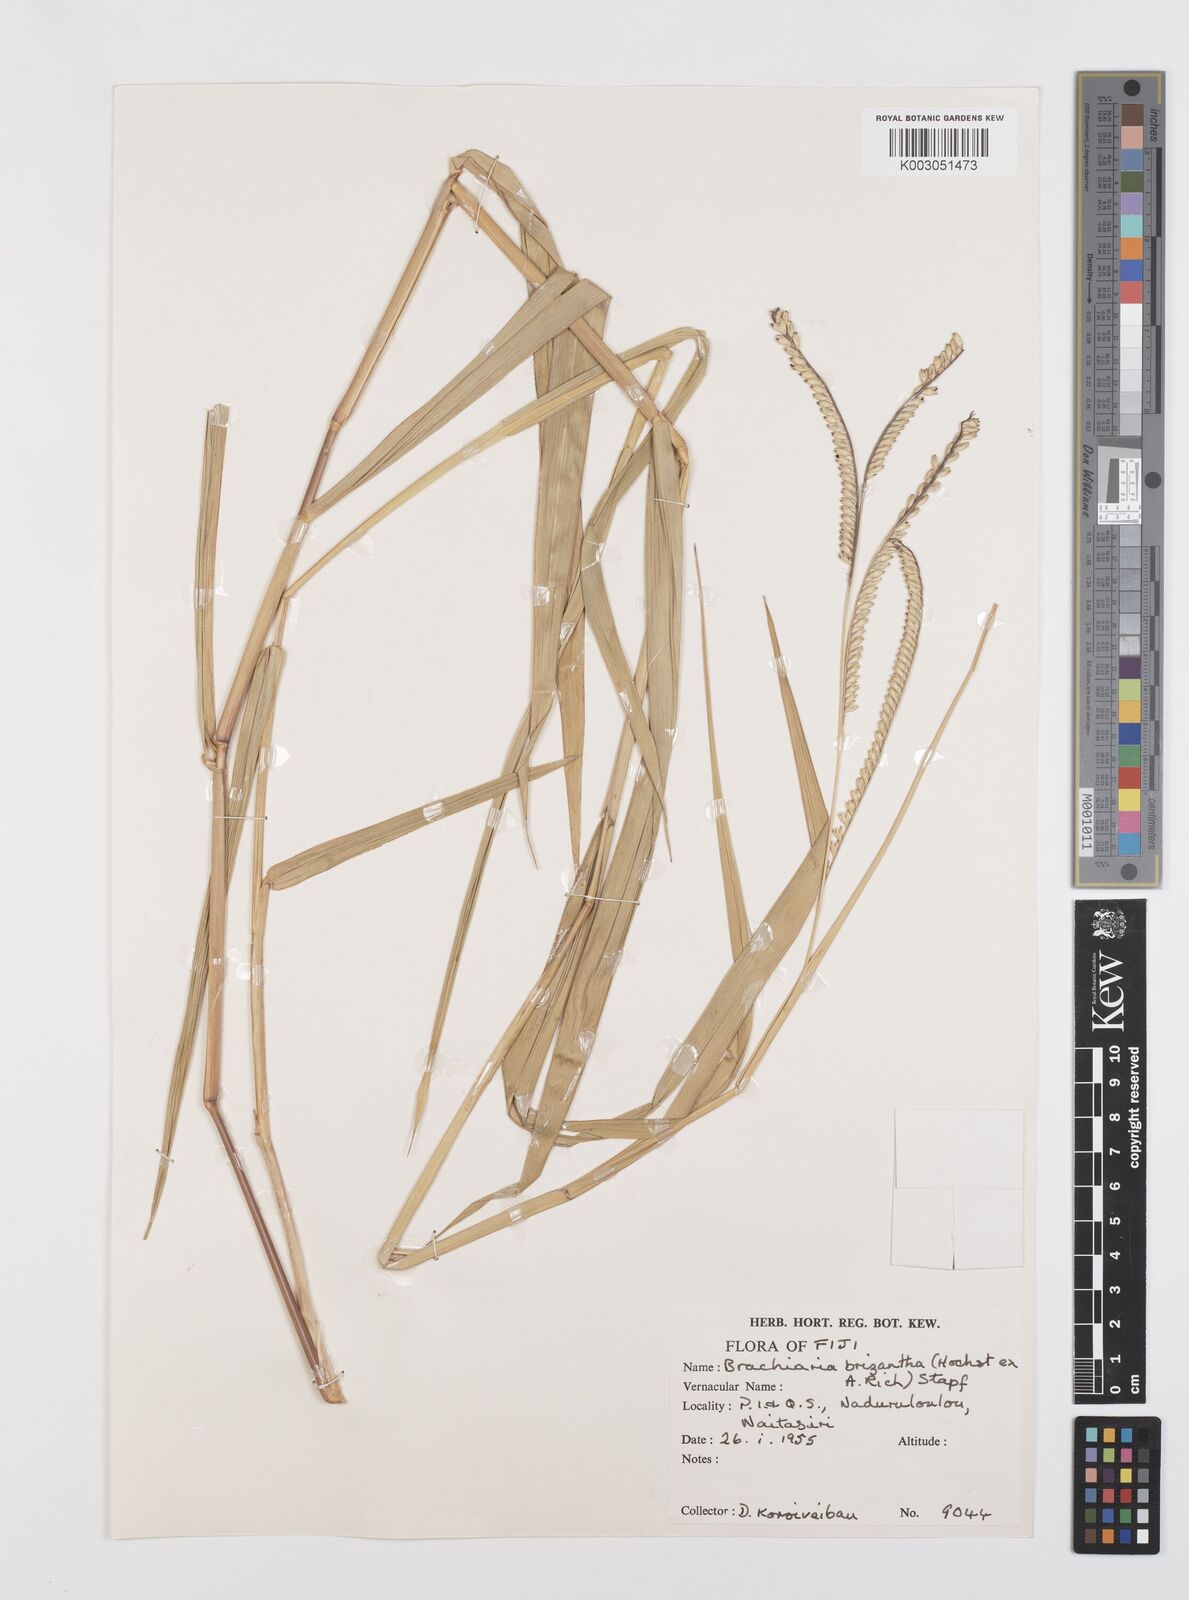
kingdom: Plantae
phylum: Tracheophyta
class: Liliopsida
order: Poales
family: Poaceae
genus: Urochloa
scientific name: Urochloa brizantha
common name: Palisade signalgrass
